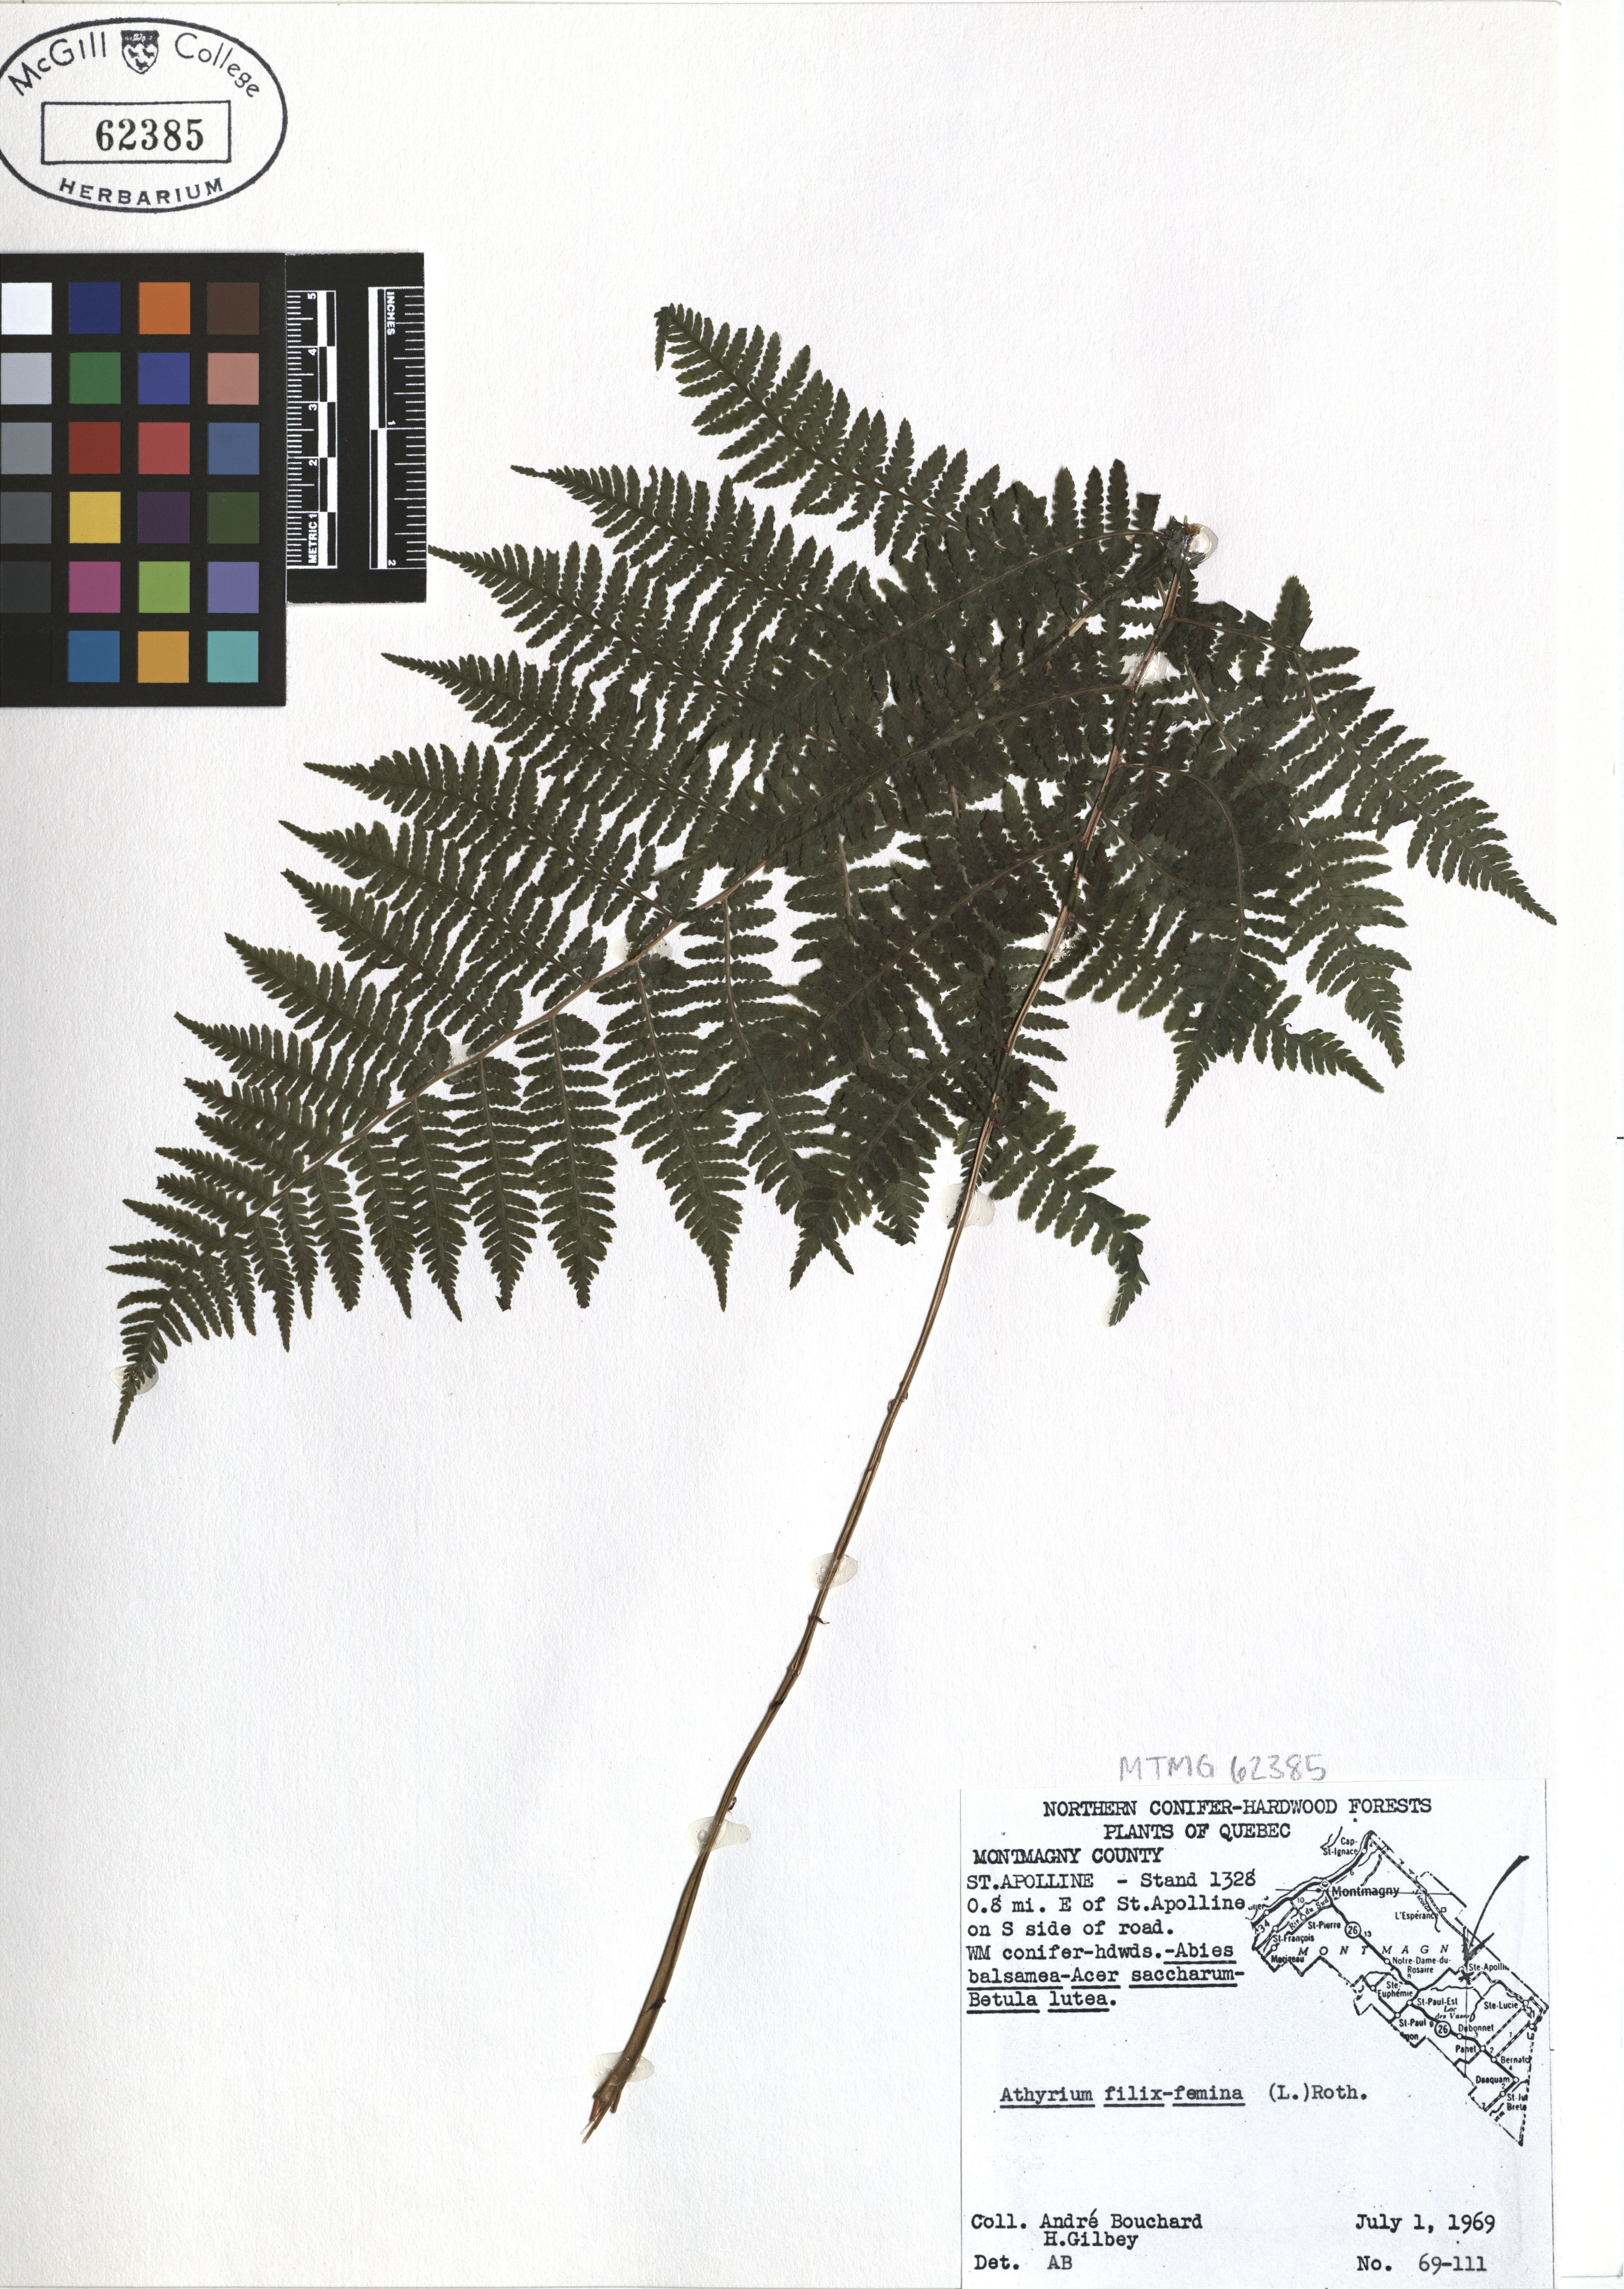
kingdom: Plantae
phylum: Tracheophyta
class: Polypodiopsida
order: Polypodiales
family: Athyriaceae
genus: Athyrium
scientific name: Athyrium filix-femina
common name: Lady fern
